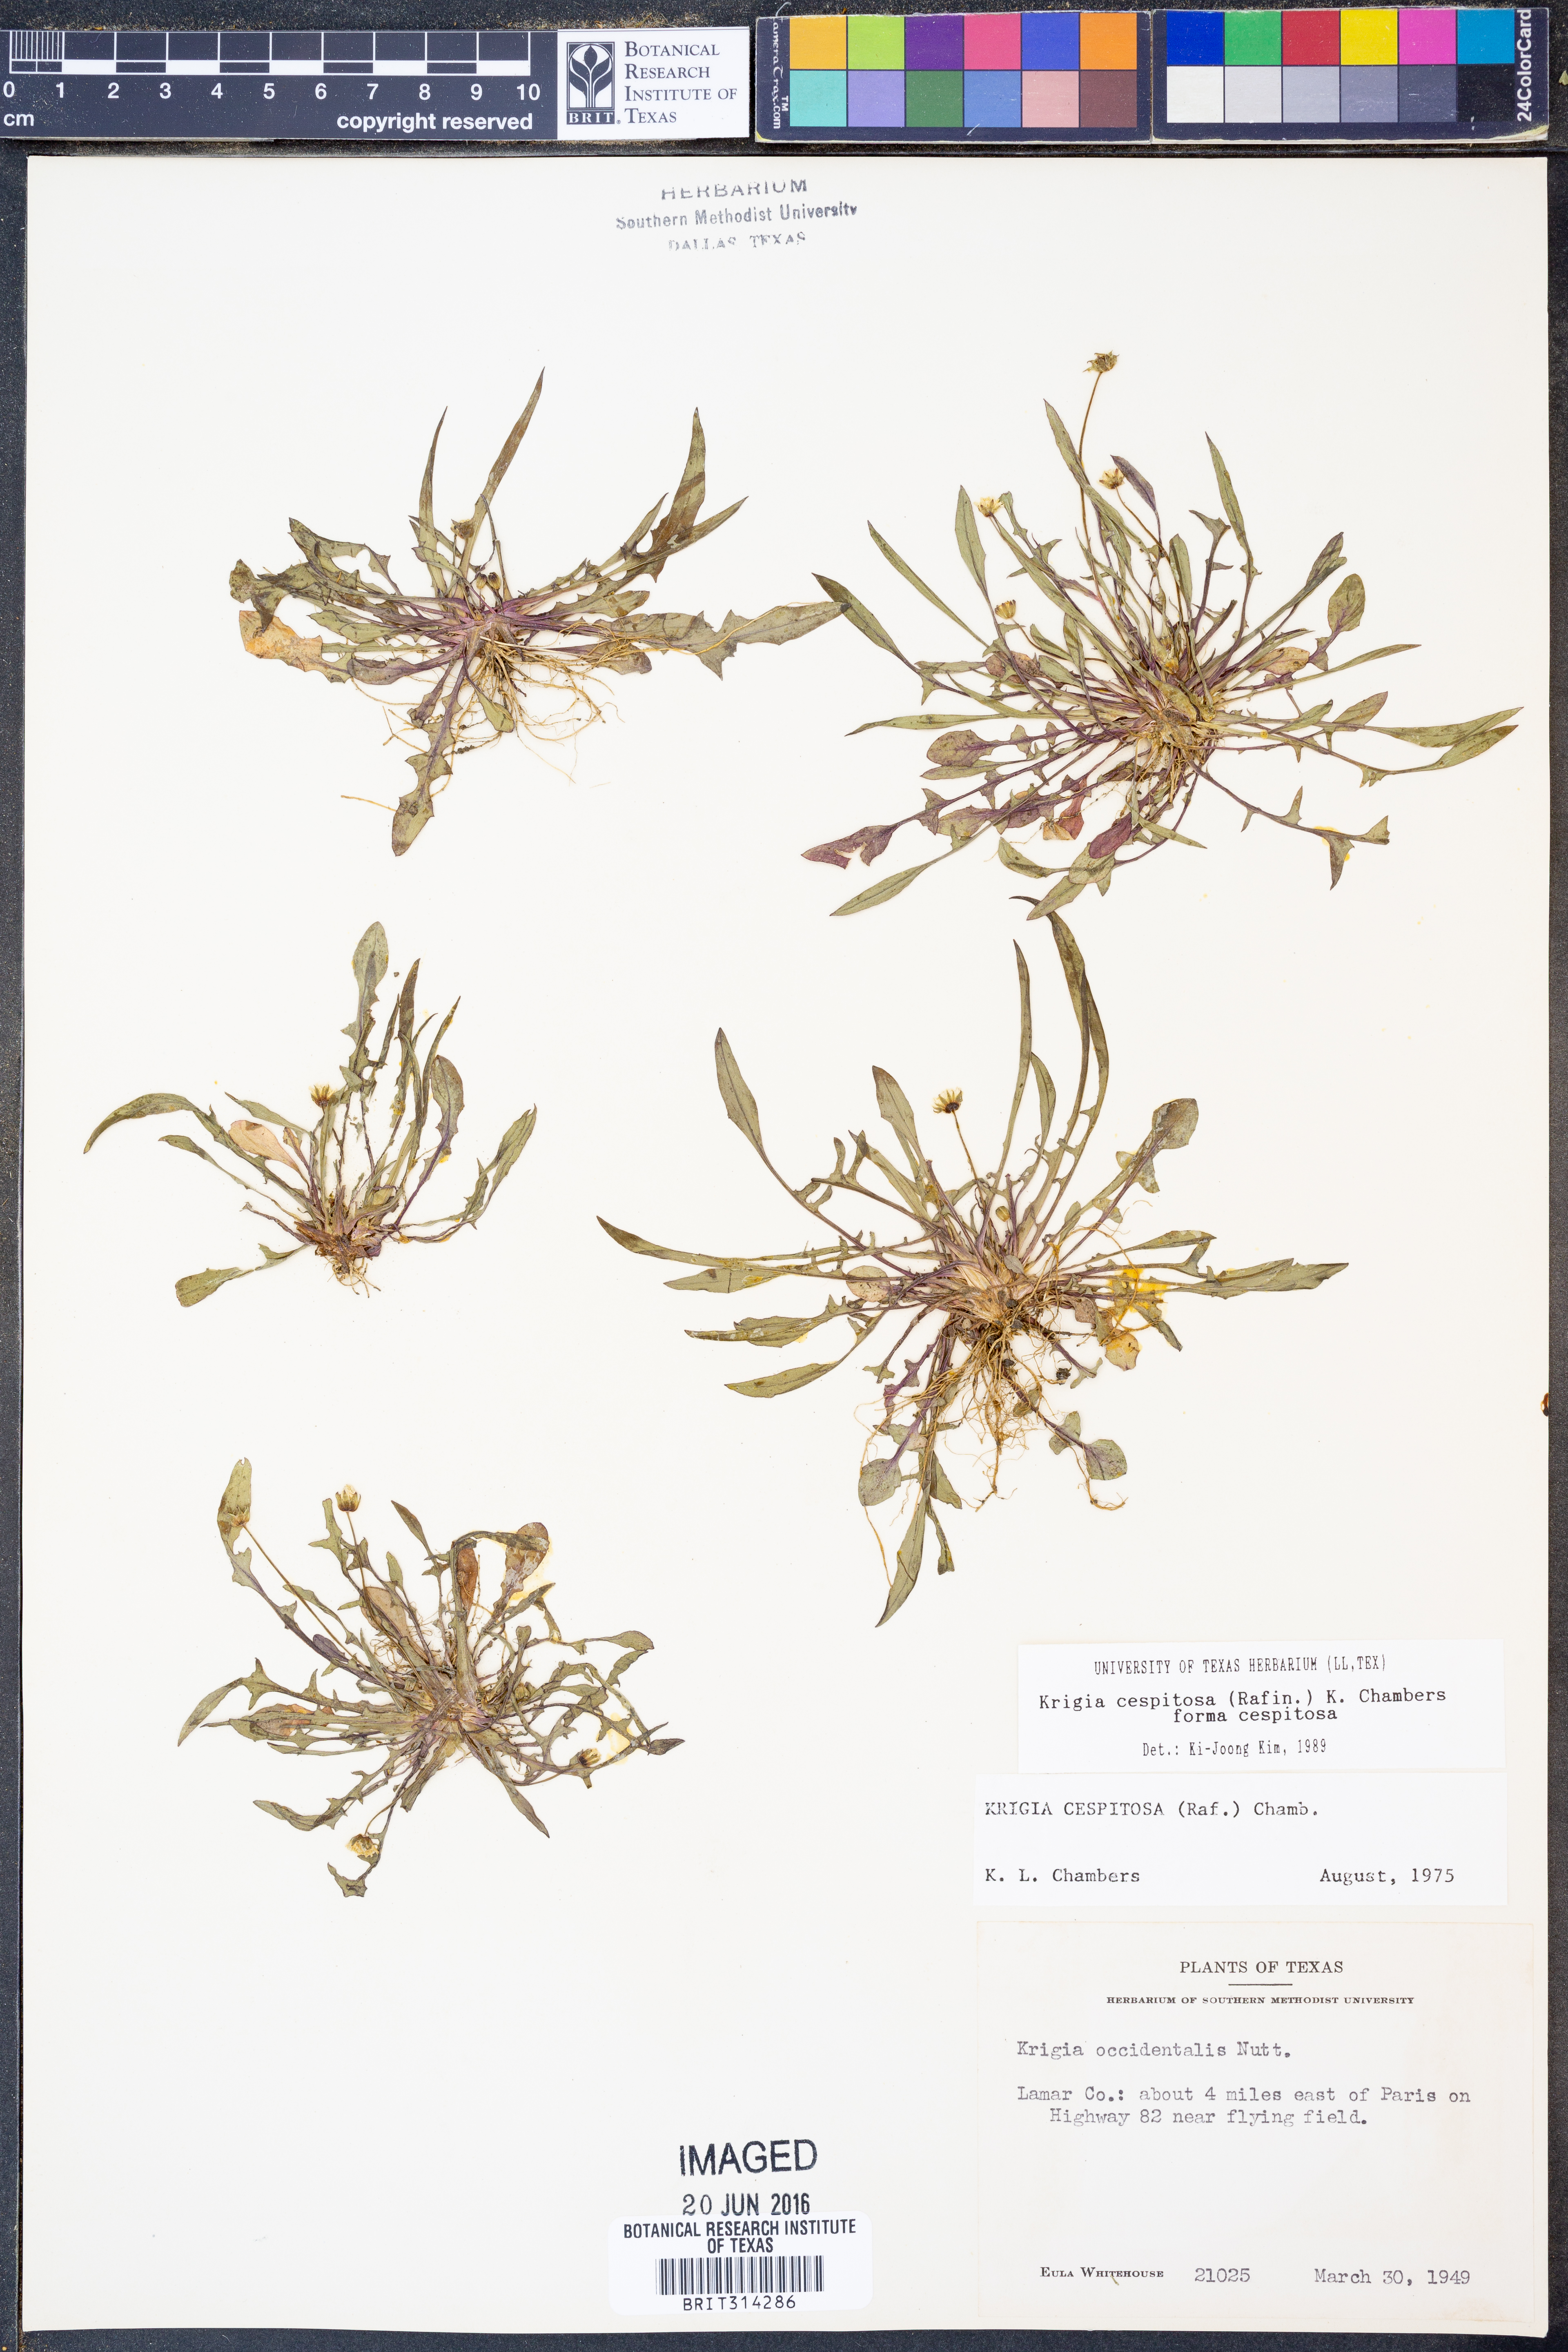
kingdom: Plantae
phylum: Tracheophyta
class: Magnoliopsida
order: Asterales
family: Asteraceae
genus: Krigia
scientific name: Krigia cespitosa
